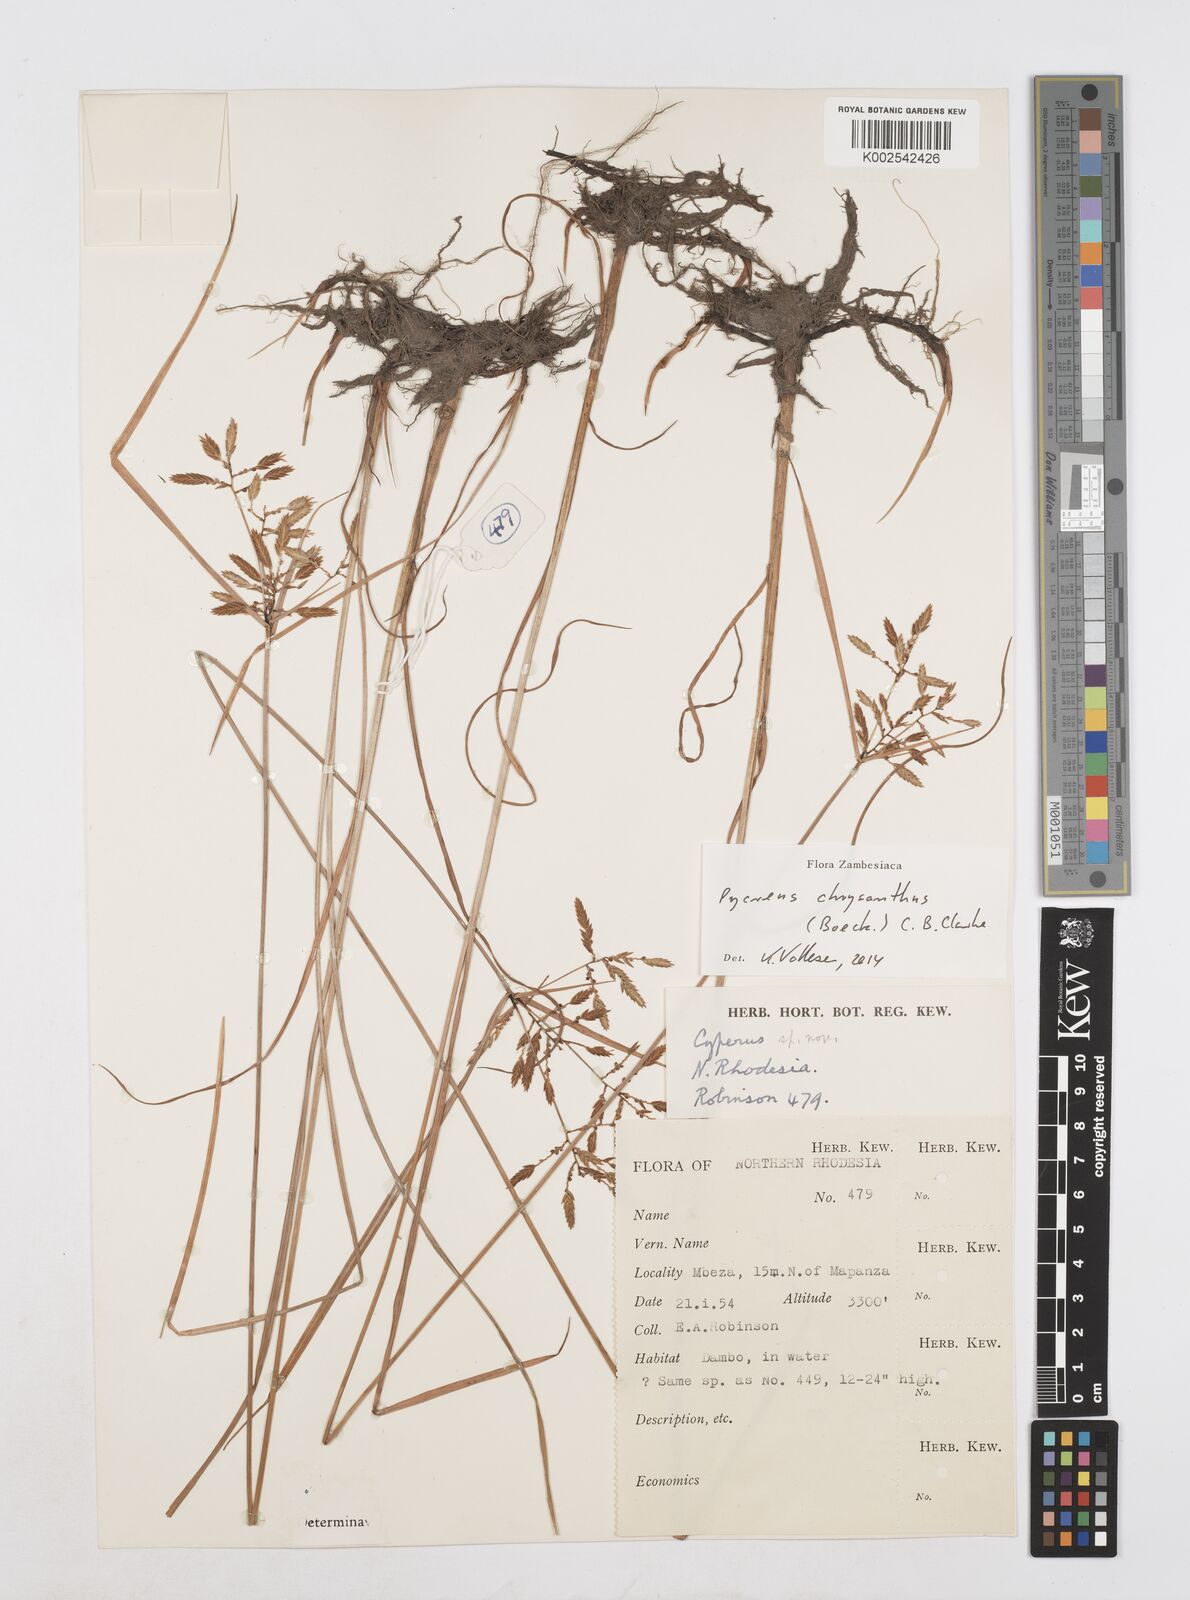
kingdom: Plantae
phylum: Tracheophyta
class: Liliopsida
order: Poales
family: Cyperaceae
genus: Cyperus
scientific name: Cyperus chrysanthus
